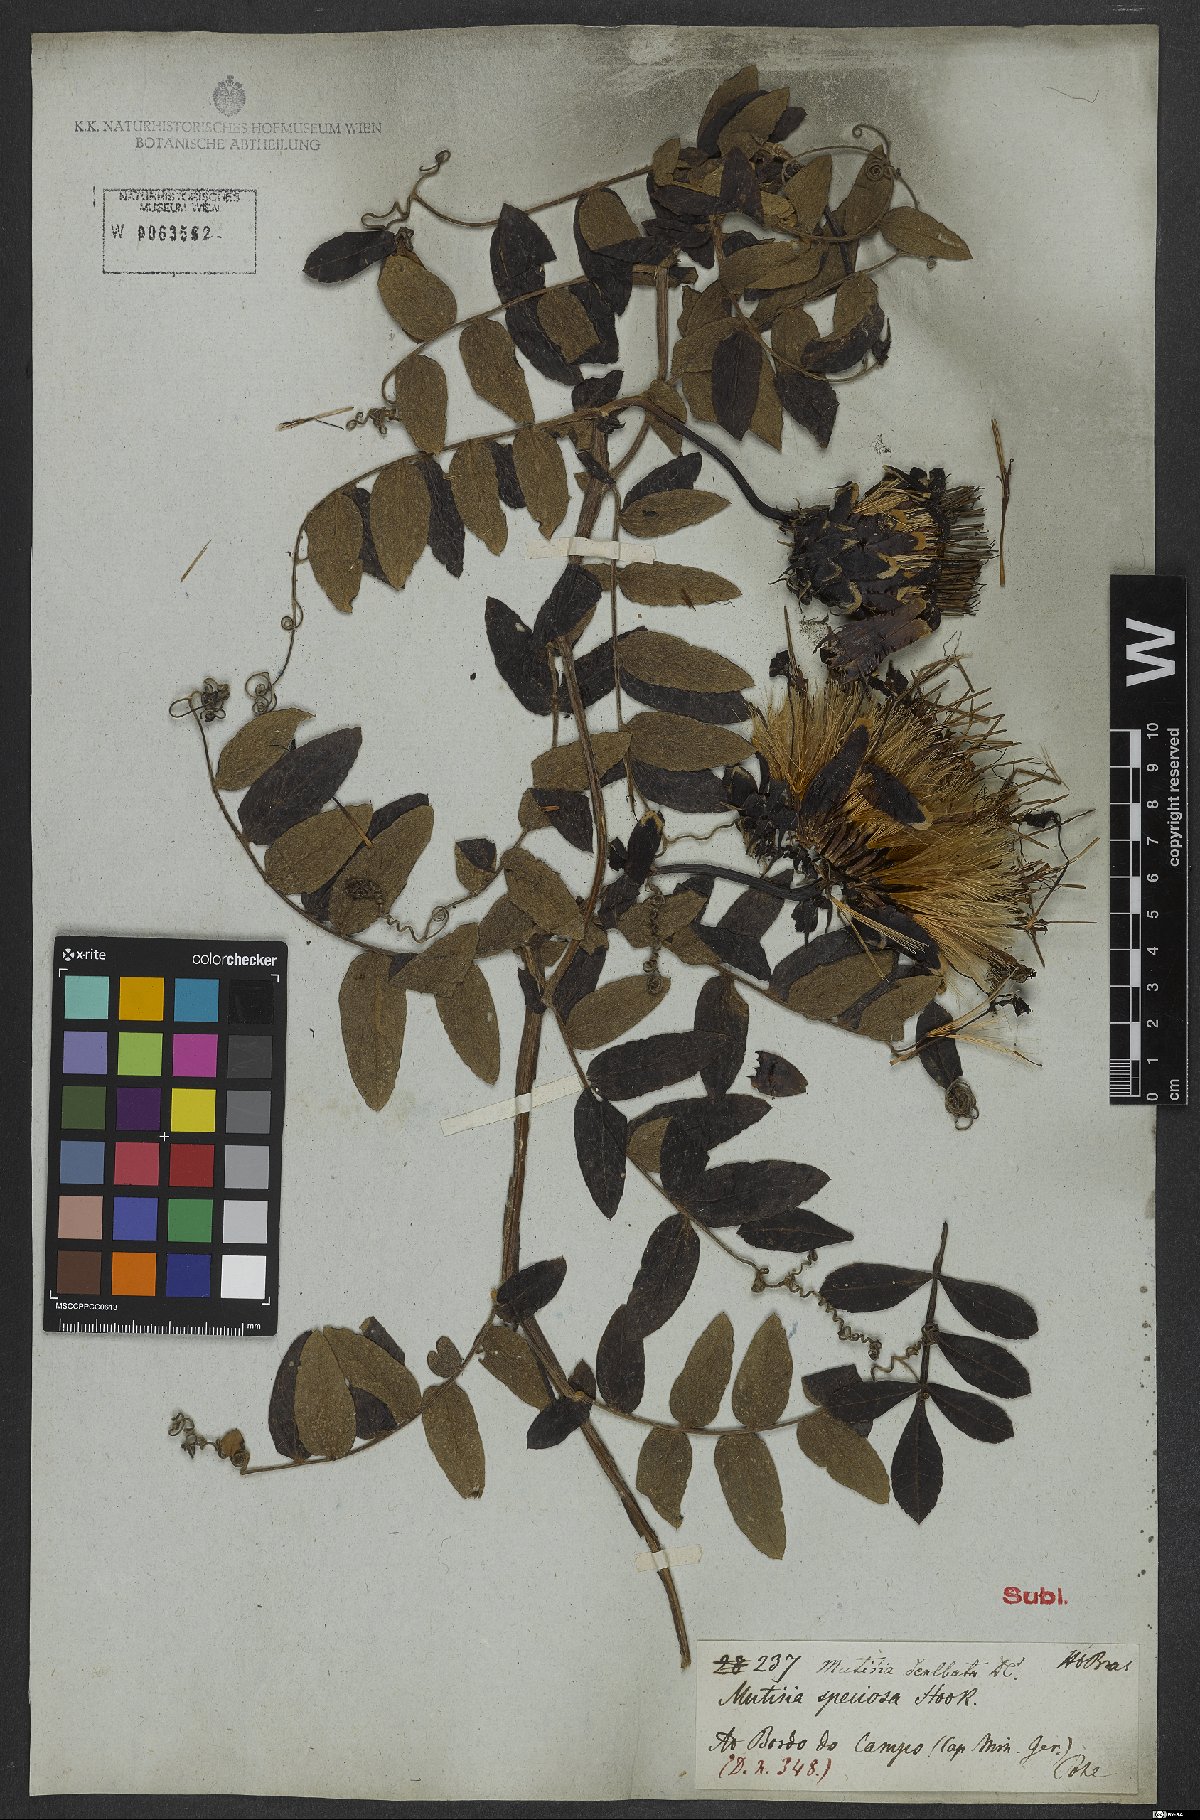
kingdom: Plantae
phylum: Tracheophyta
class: Magnoliopsida
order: Asterales
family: Asteraceae
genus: Mutisia
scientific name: Mutisia coccinea
